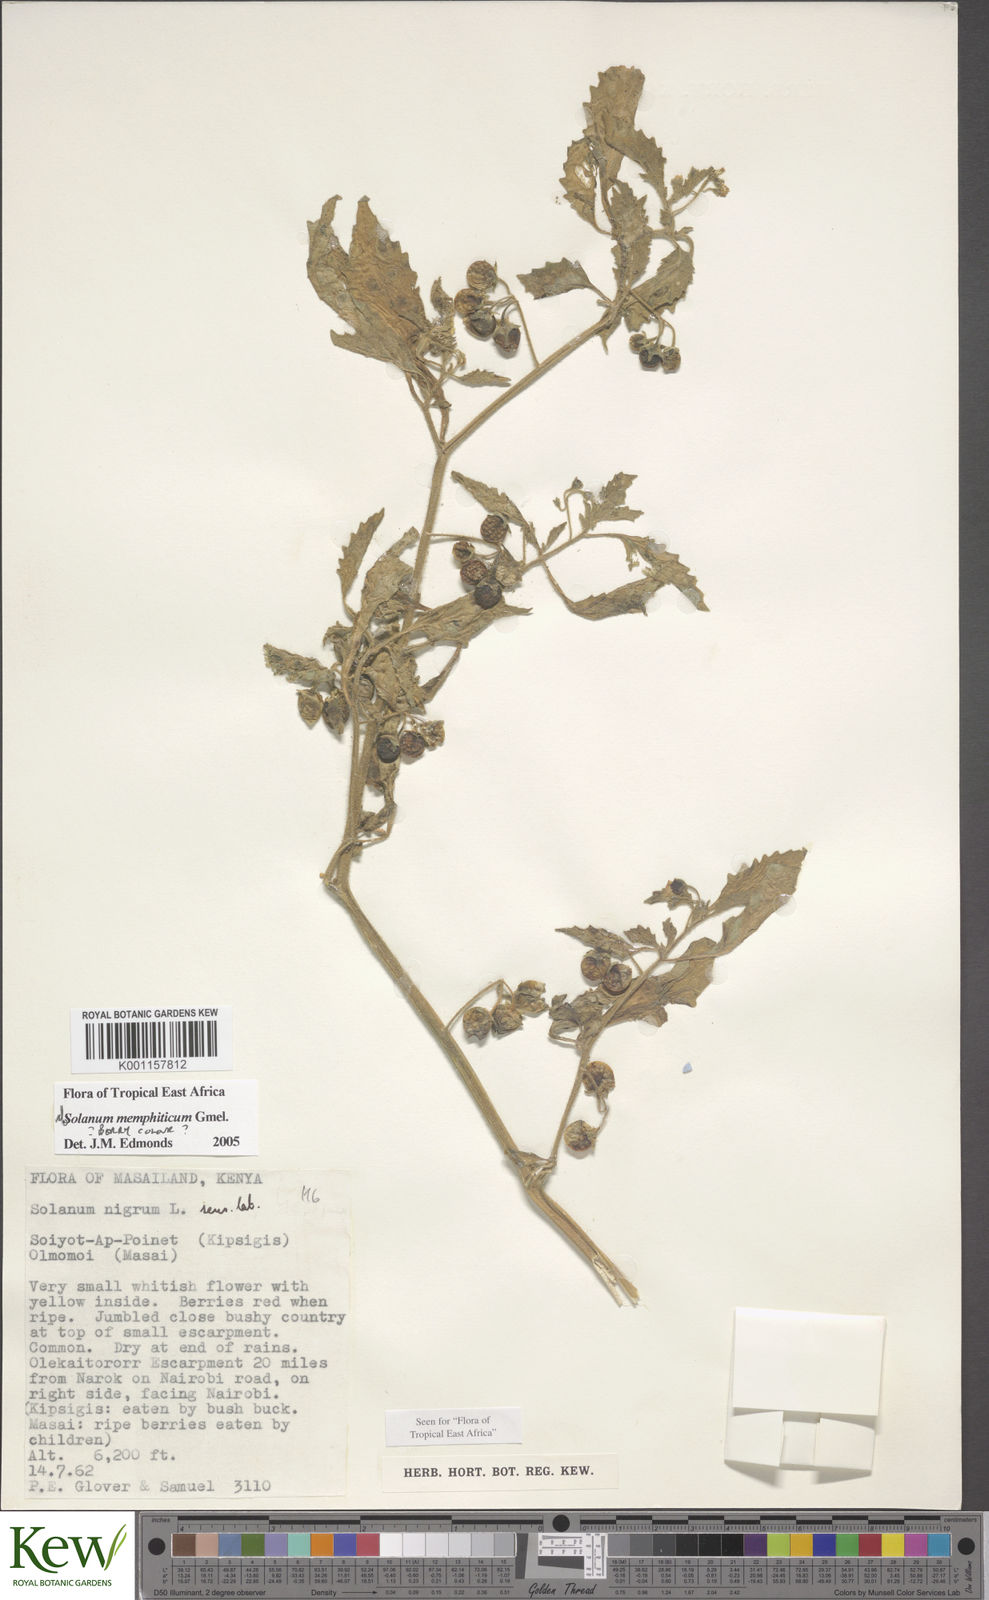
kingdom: Plantae
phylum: Tracheophyta
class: Magnoliopsida
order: Solanales
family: Solanaceae
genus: Solanum
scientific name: Solanum memphiticum
